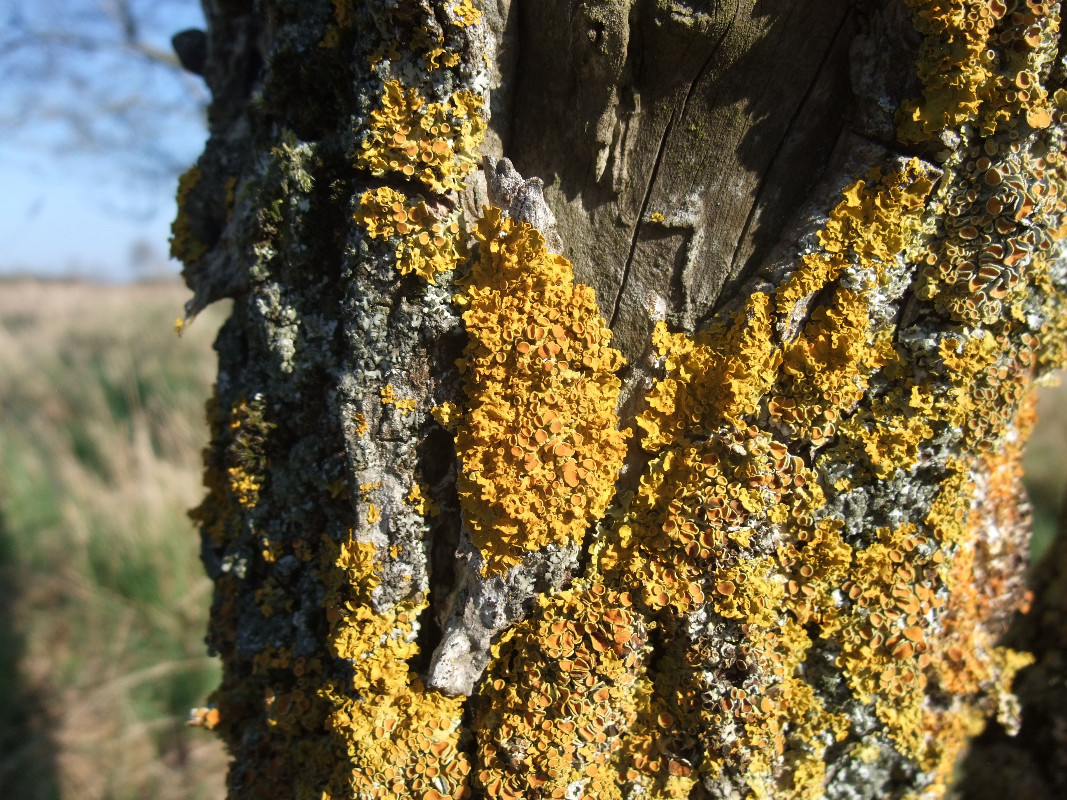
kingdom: Fungi
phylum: Ascomycota
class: Lecanoromycetes
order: Teloschistales
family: Teloschistaceae
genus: Xanthoria
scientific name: Xanthoria parietina
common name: almindelig væggelav
